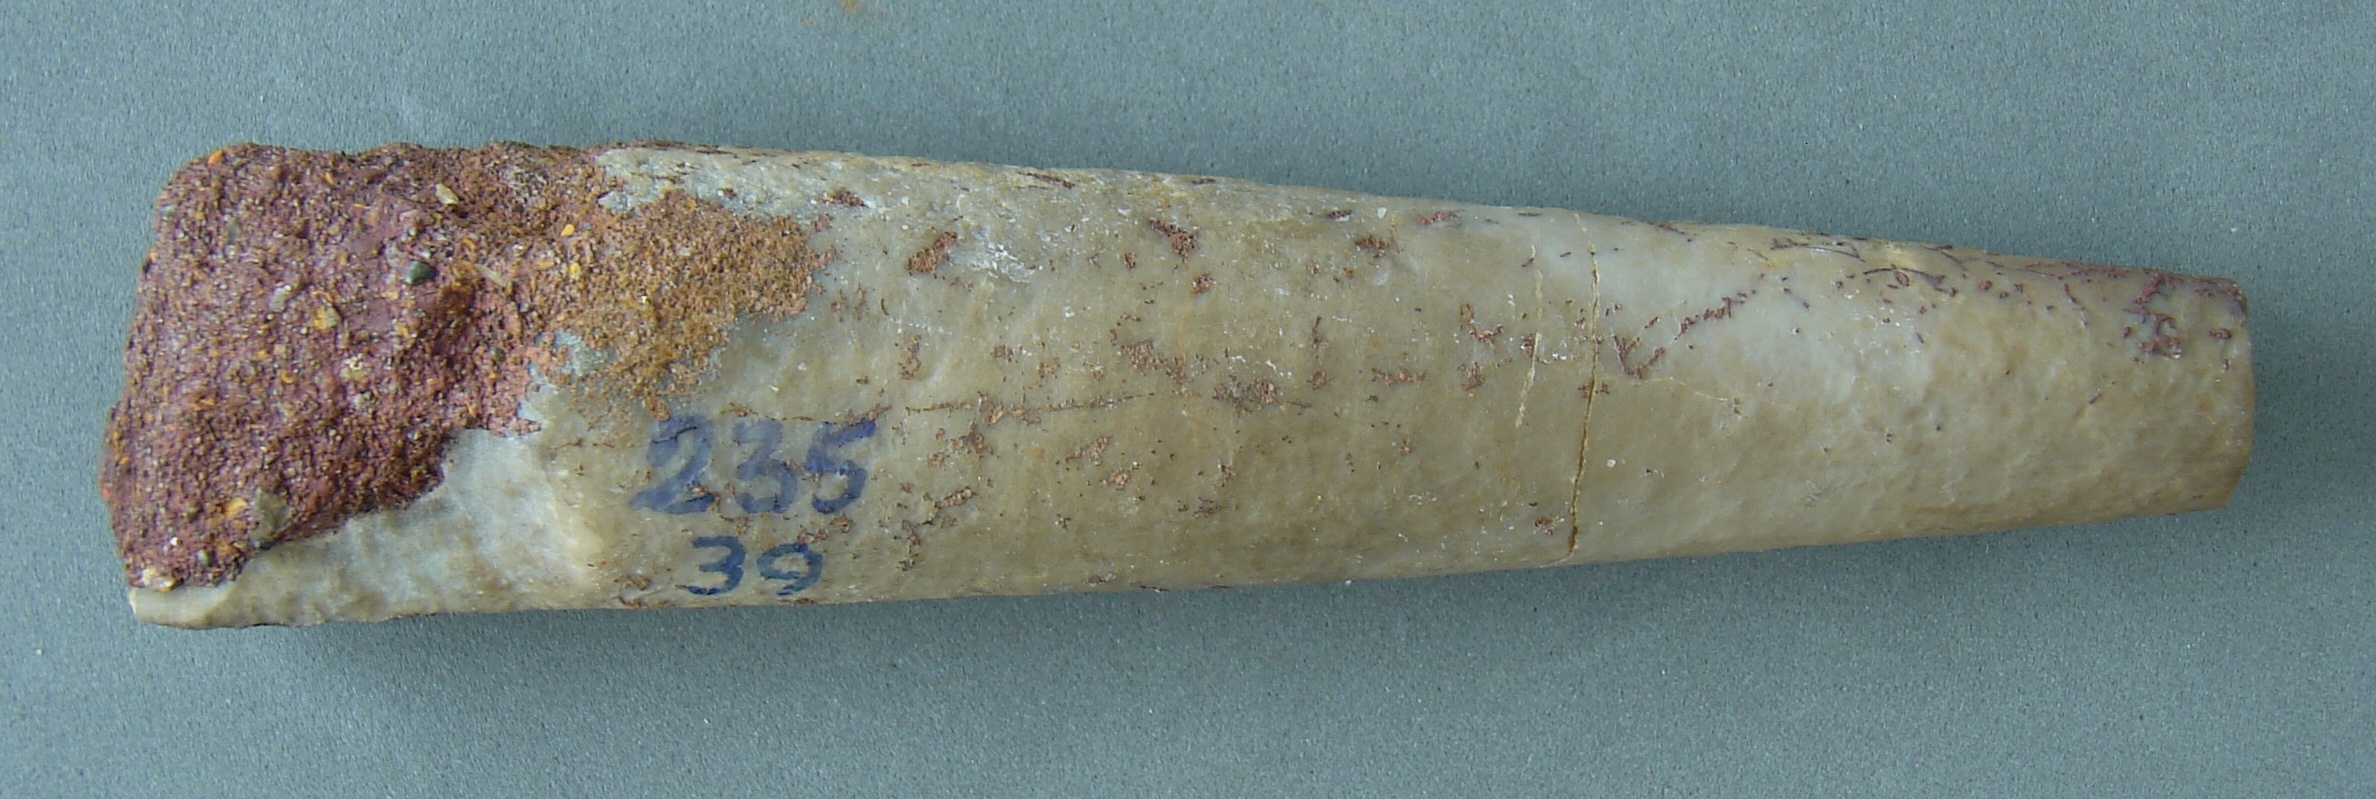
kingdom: Animalia
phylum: Mollusca
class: Cephalopoda
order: Belemnitida
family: Megateuthididae
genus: Megateuthis
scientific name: Megateuthis
